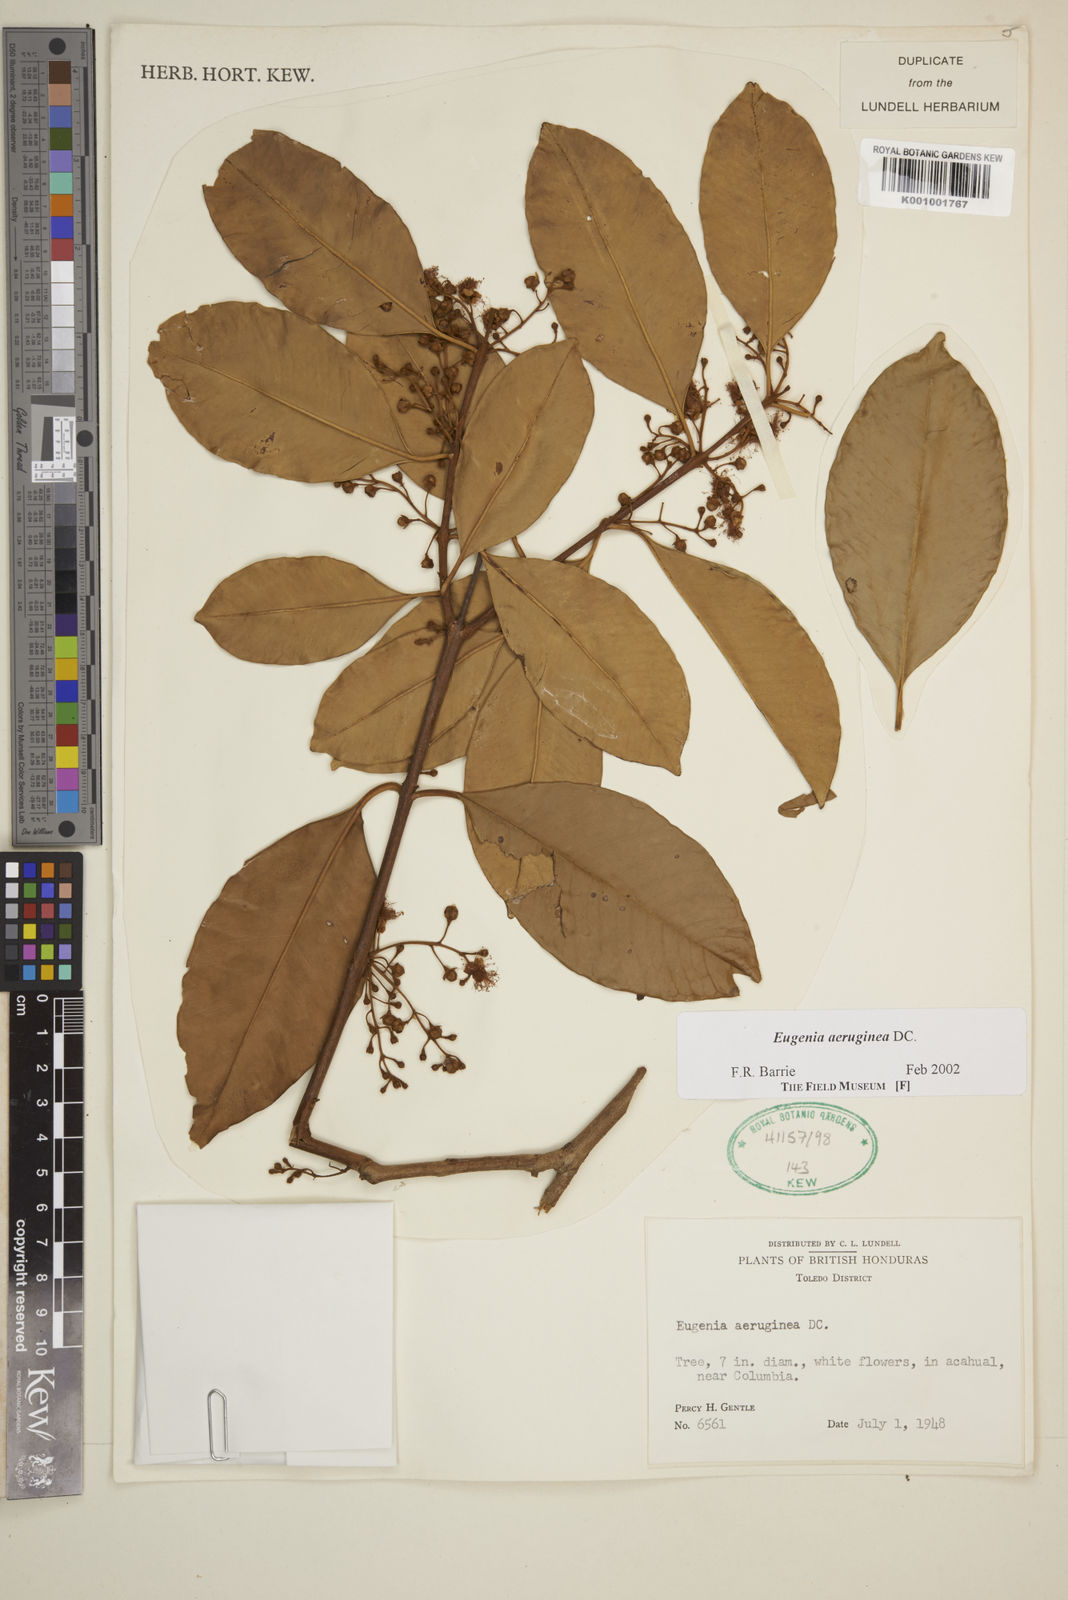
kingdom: Plantae
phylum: Tracheophyta
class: Magnoliopsida
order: Myrtales
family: Myrtaceae
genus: Eugenia
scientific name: Eugenia aeruginea
